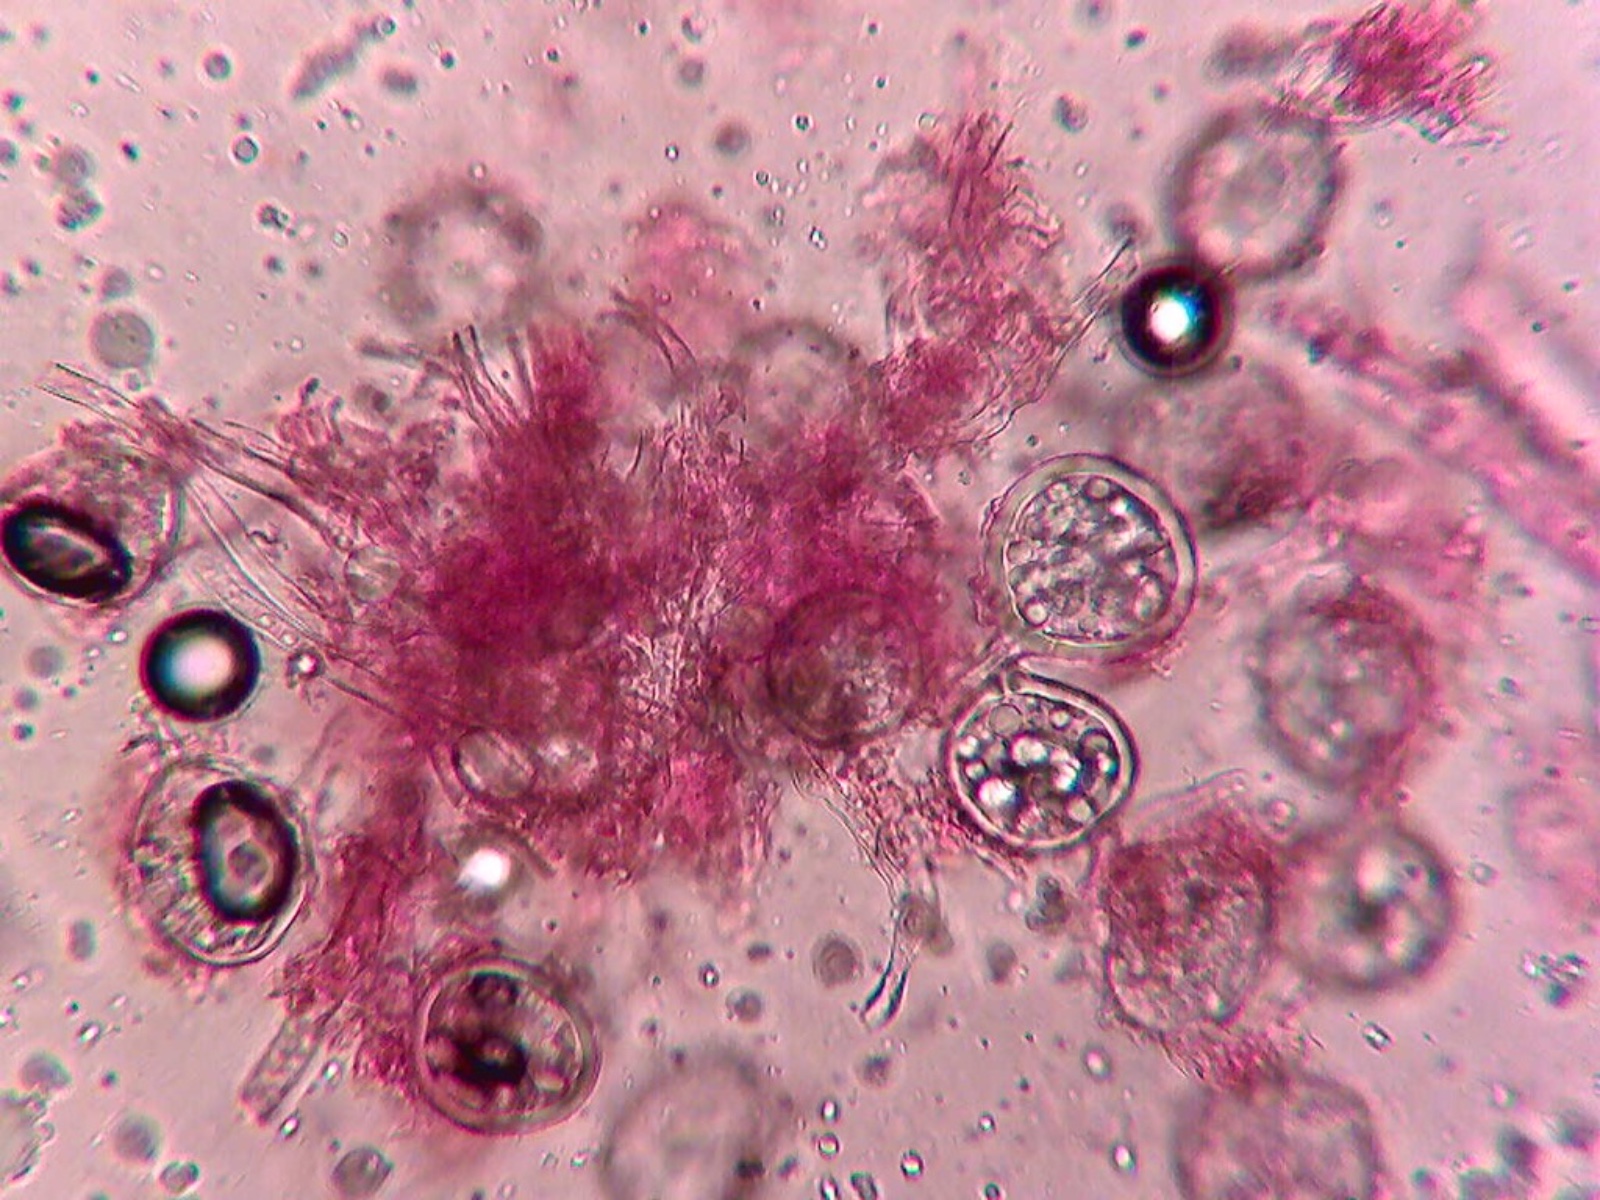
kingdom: Fungi
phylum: Glomeromycota
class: Glomeromycetes
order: Glomerales
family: Glomeraceae
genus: Glomus
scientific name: Glomus microcarpum
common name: Small-spored pea truffle
